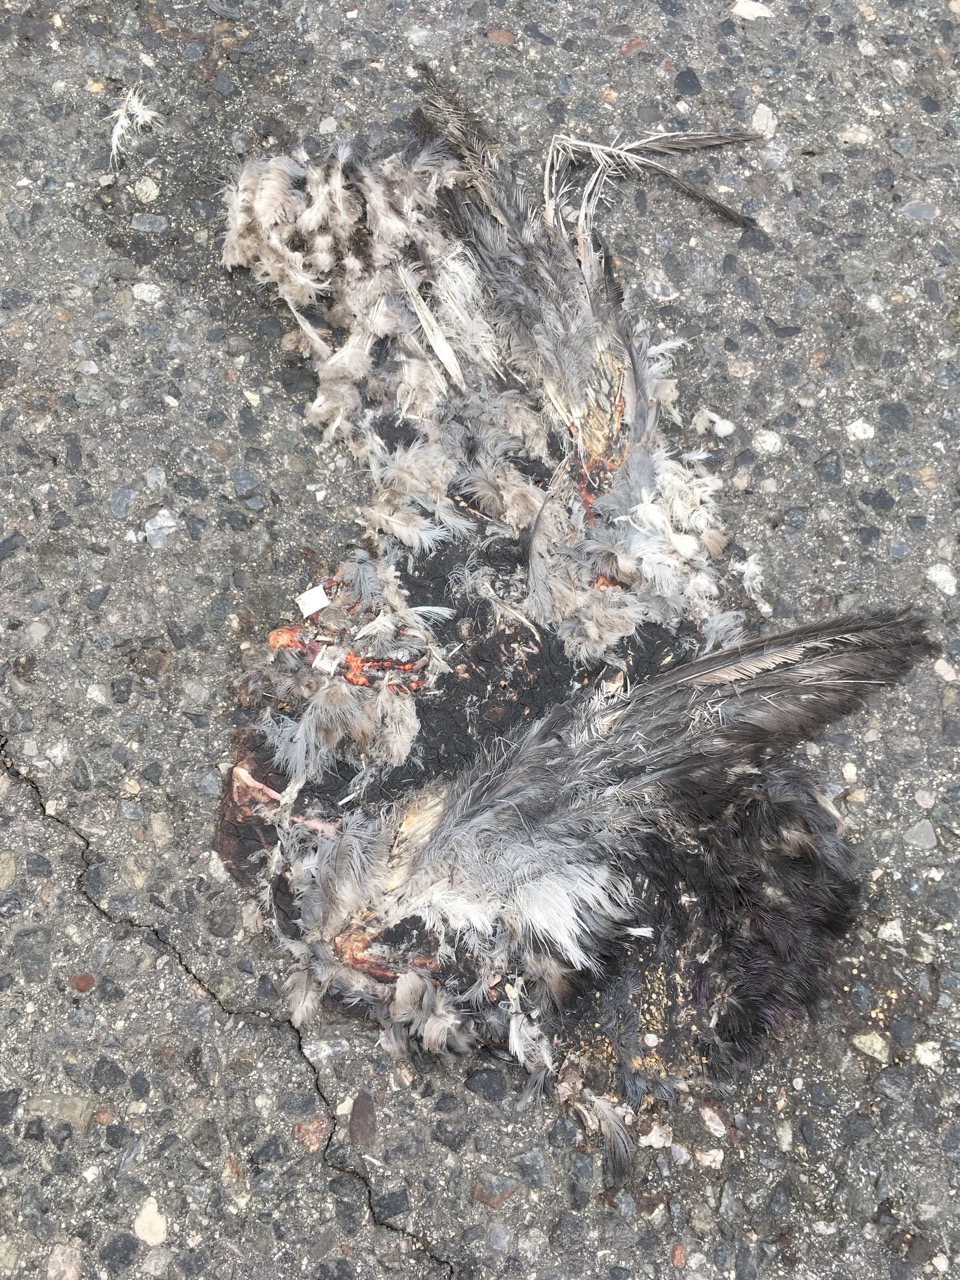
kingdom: Animalia
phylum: Chordata
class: Aves
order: Columbiformes
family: Columbidae
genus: Columba
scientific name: Columba livia
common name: Rock pigeon
